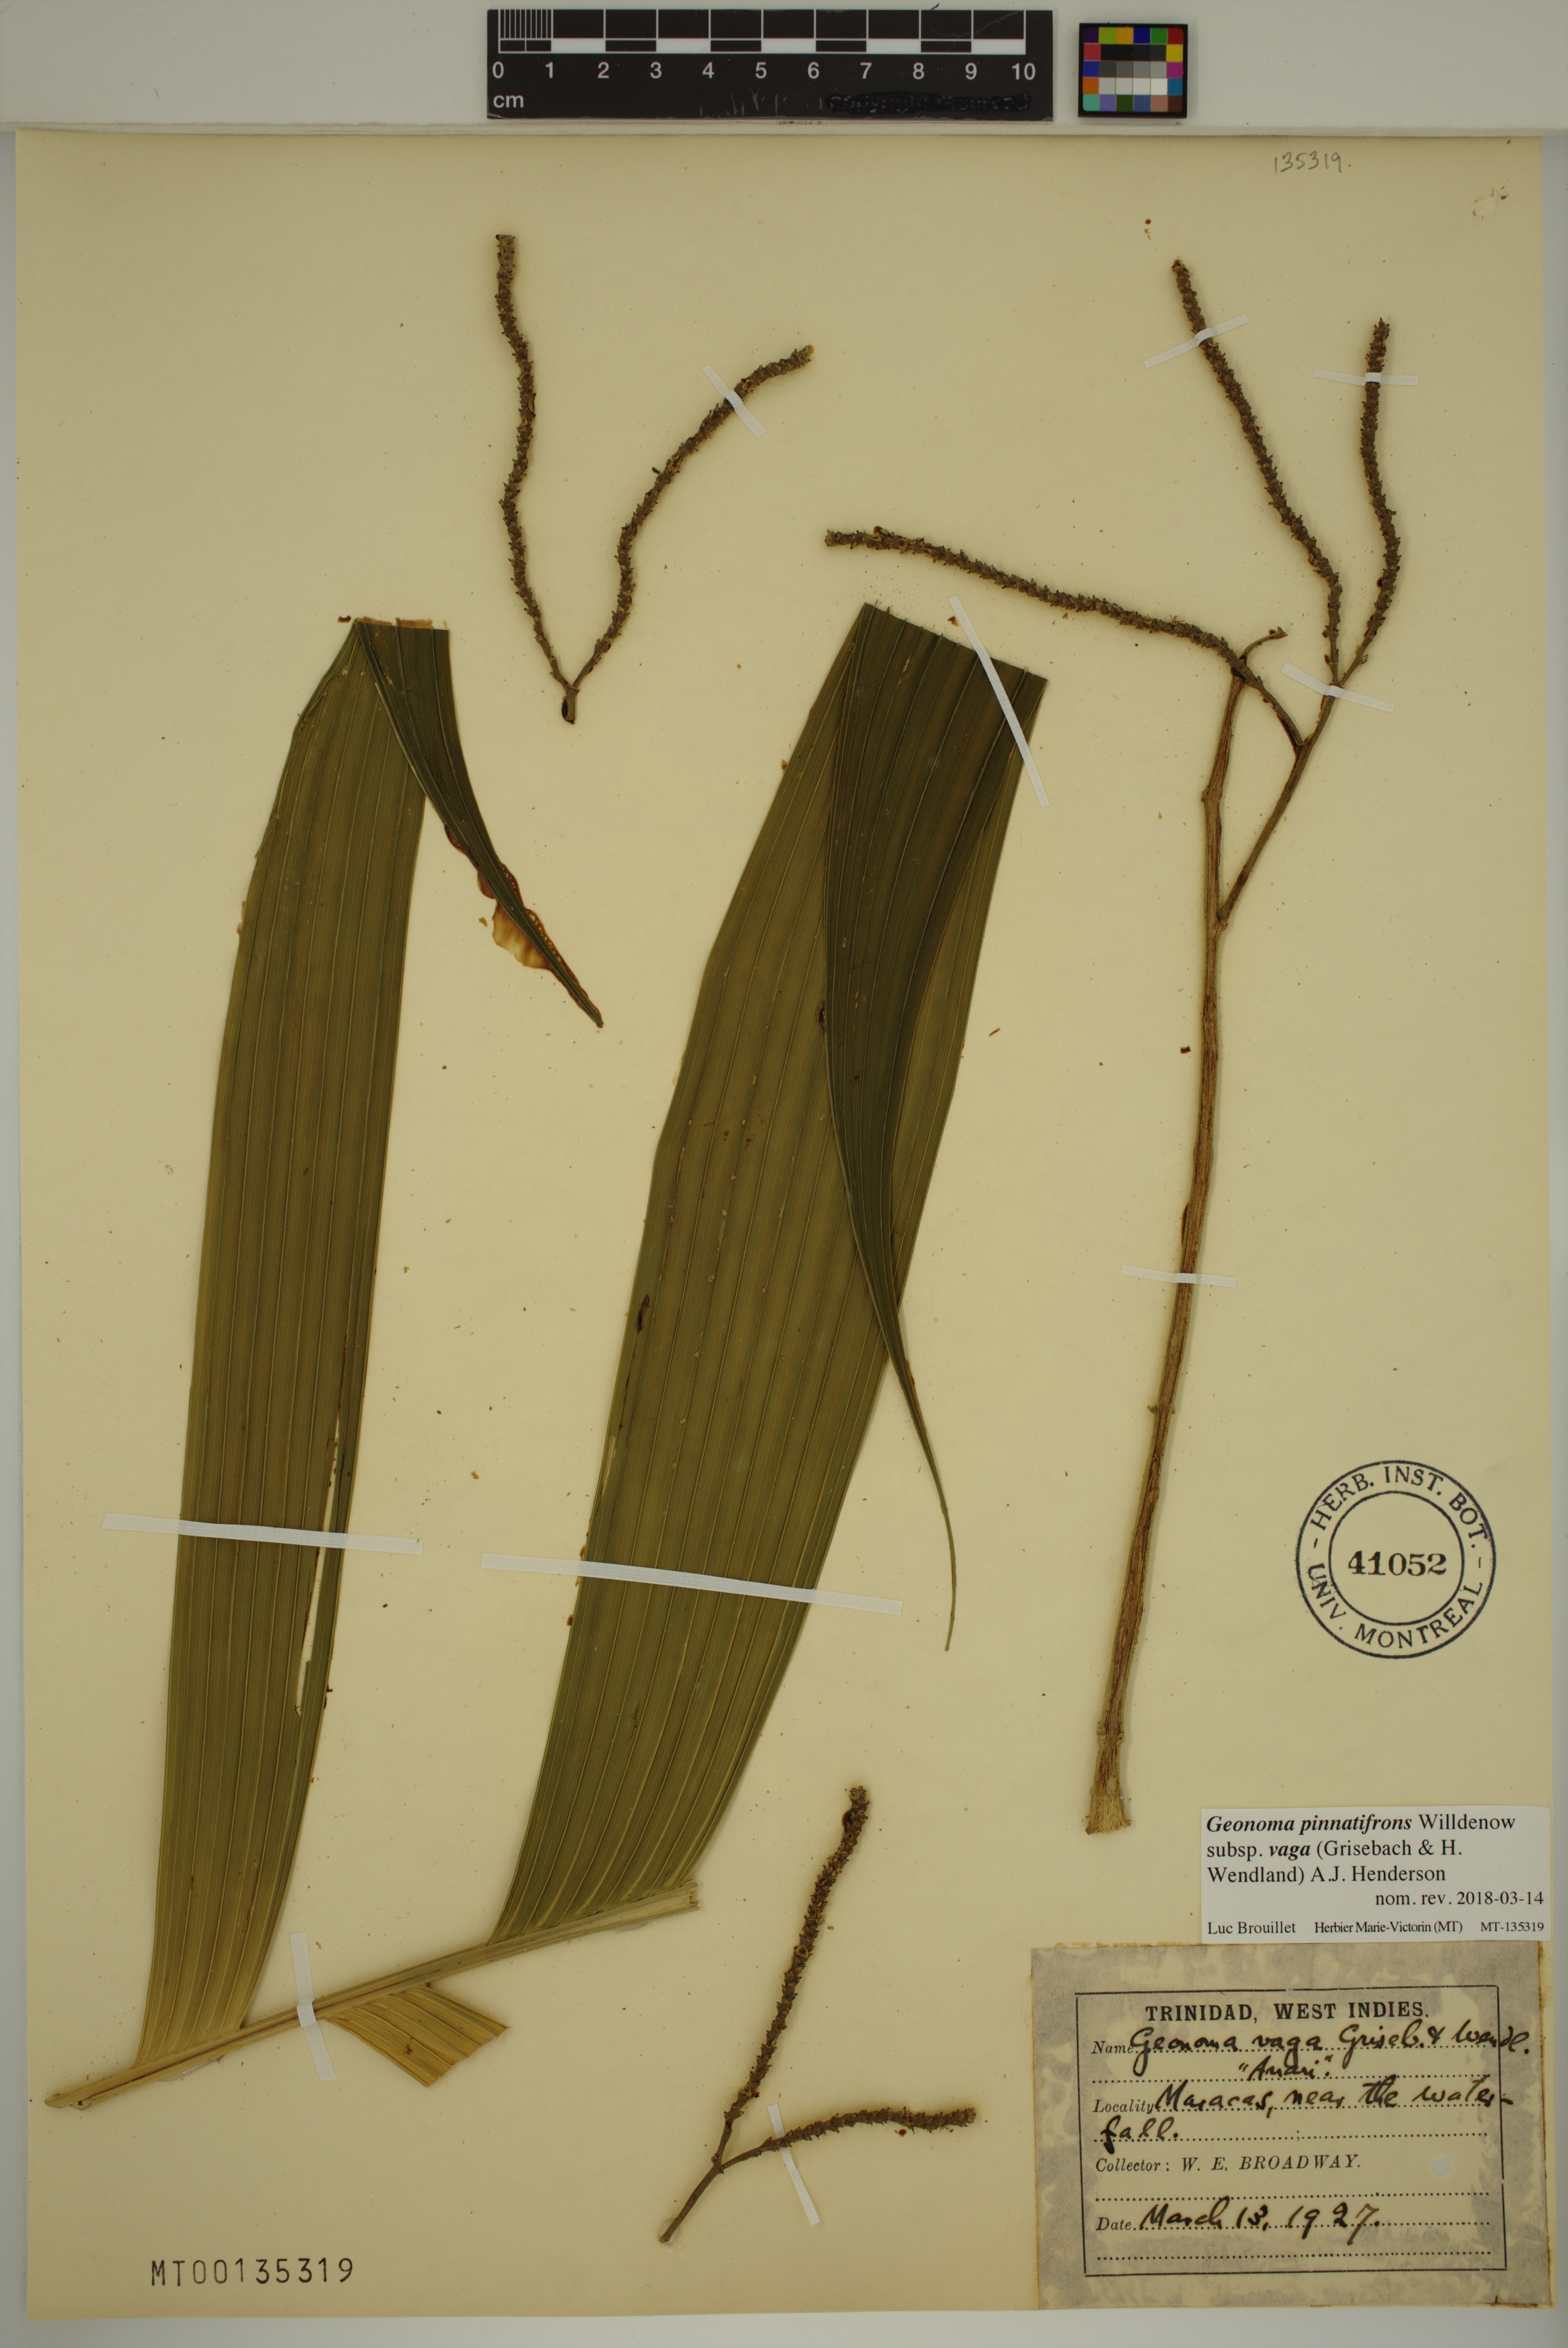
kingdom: Plantae
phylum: Tracheophyta
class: Liliopsida
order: Arecales
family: Arecaceae
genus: Geonoma
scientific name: Geonoma pinnatifrons
